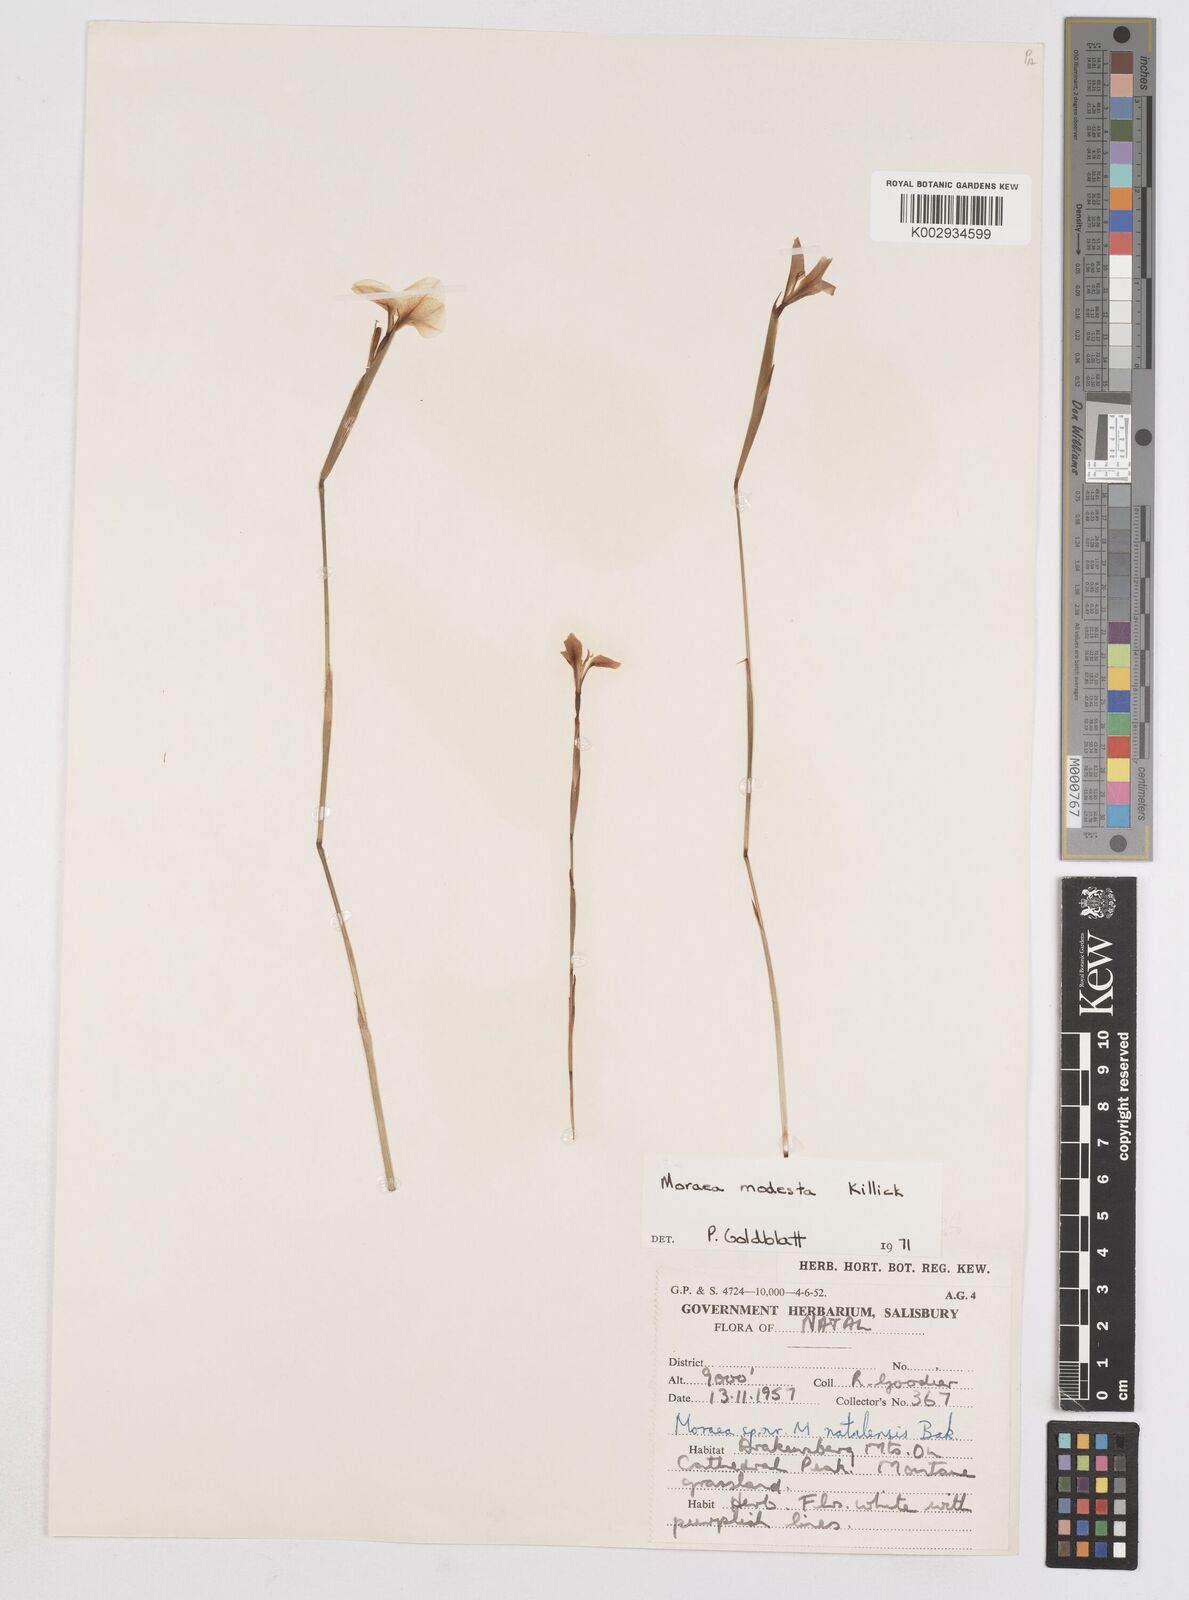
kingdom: Plantae
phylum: Tracheophyta
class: Liliopsida
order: Asparagales
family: Iridaceae
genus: Moraea
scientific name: Moraea modesta
